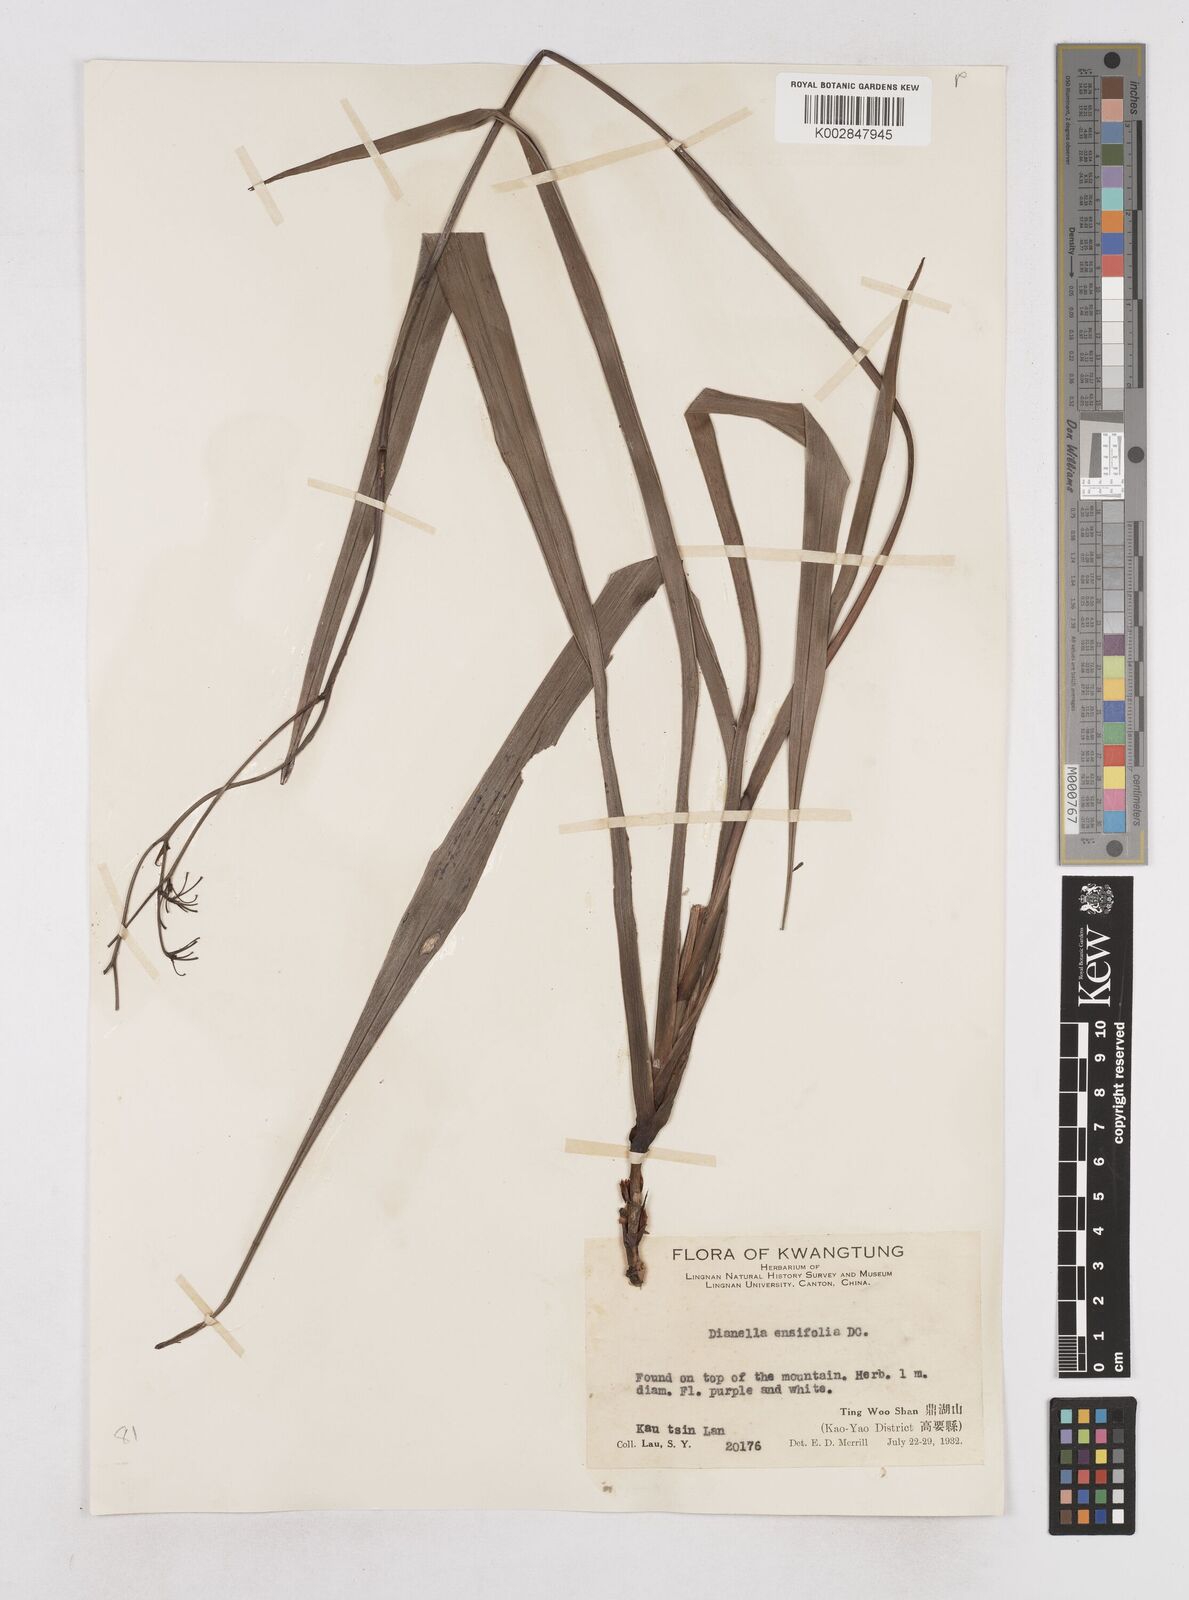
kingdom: Plantae
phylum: Tracheophyta
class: Liliopsida
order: Asparagales
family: Asphodelaceae
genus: Dianella
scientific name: Dianella ensifolia
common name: New zealand lilyplant
